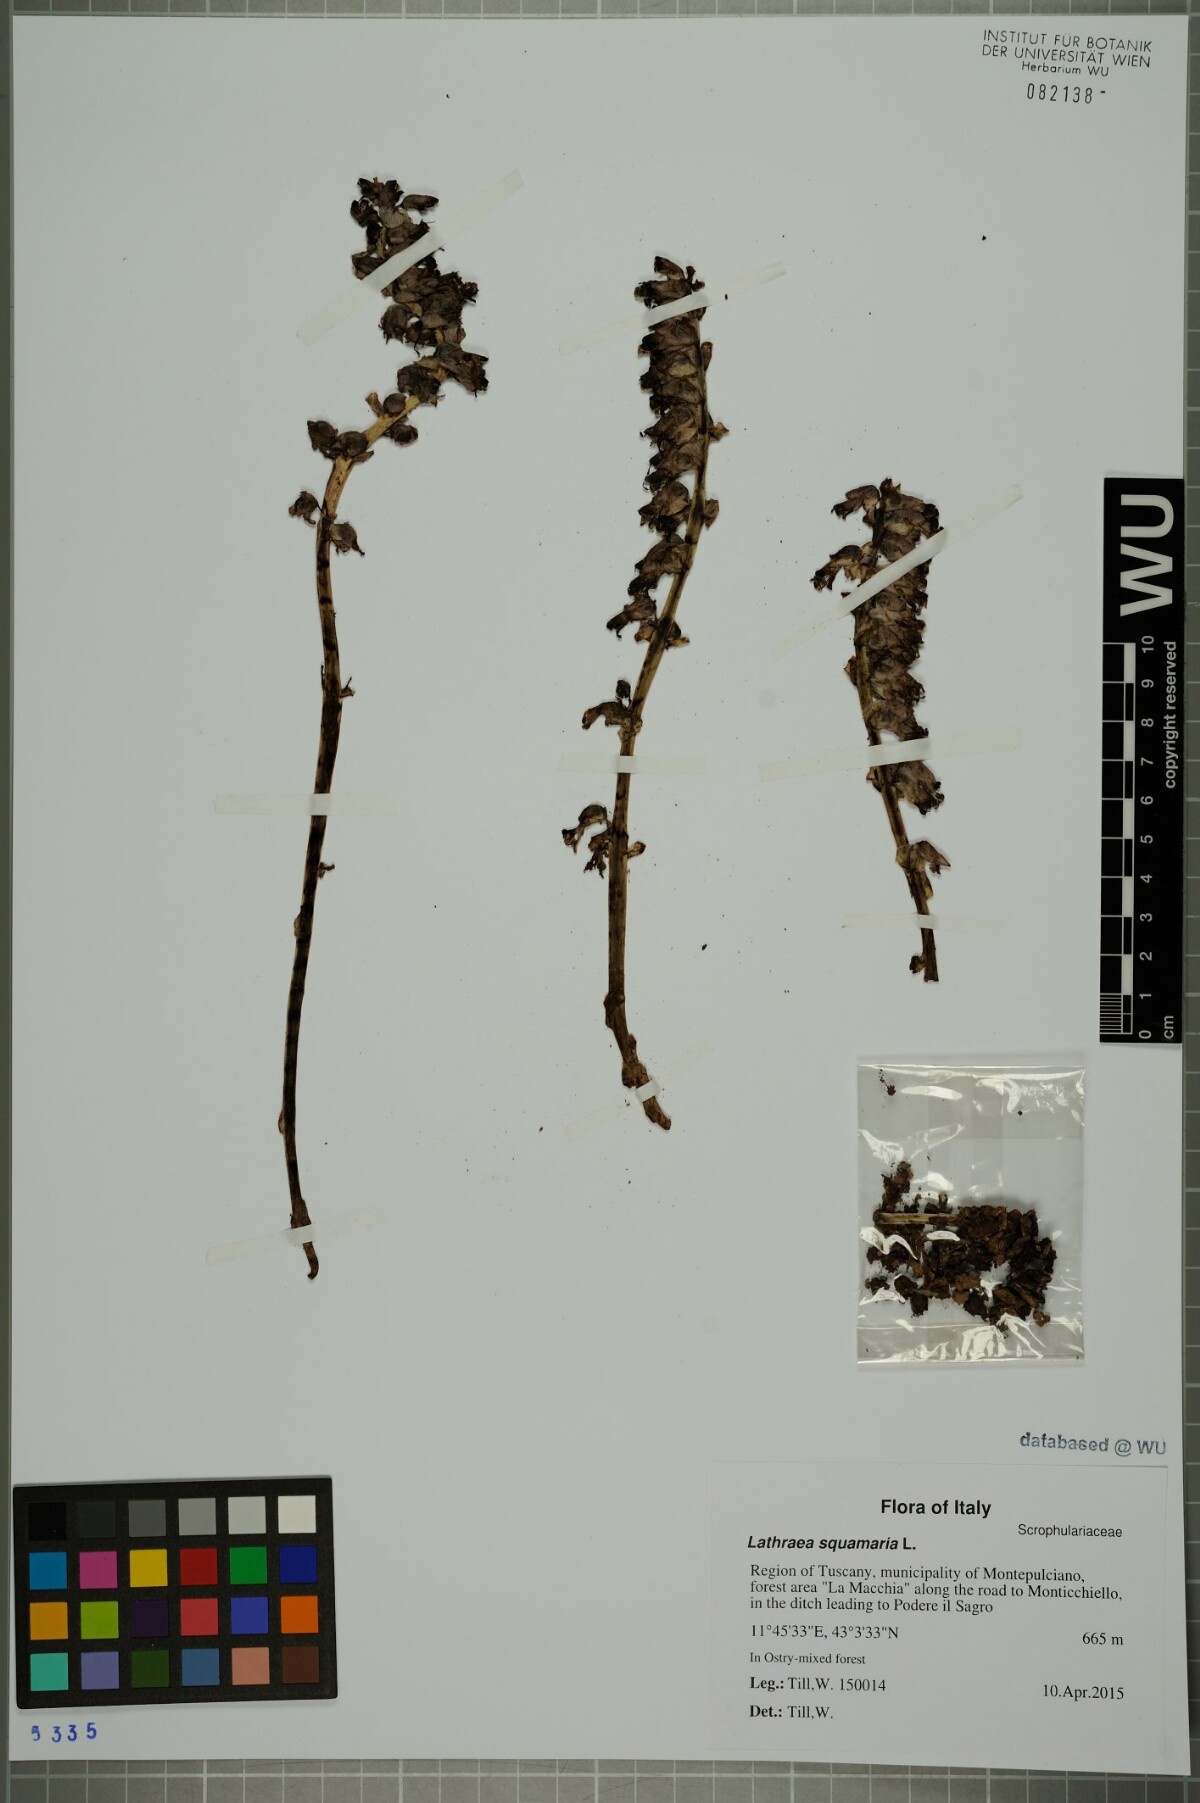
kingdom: Plantae
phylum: Tracheophyta
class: Magnoliopsida
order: Lamiales
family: Orobanchaceae
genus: Lathraea
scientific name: Lathraea squamaria
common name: Toothwort
